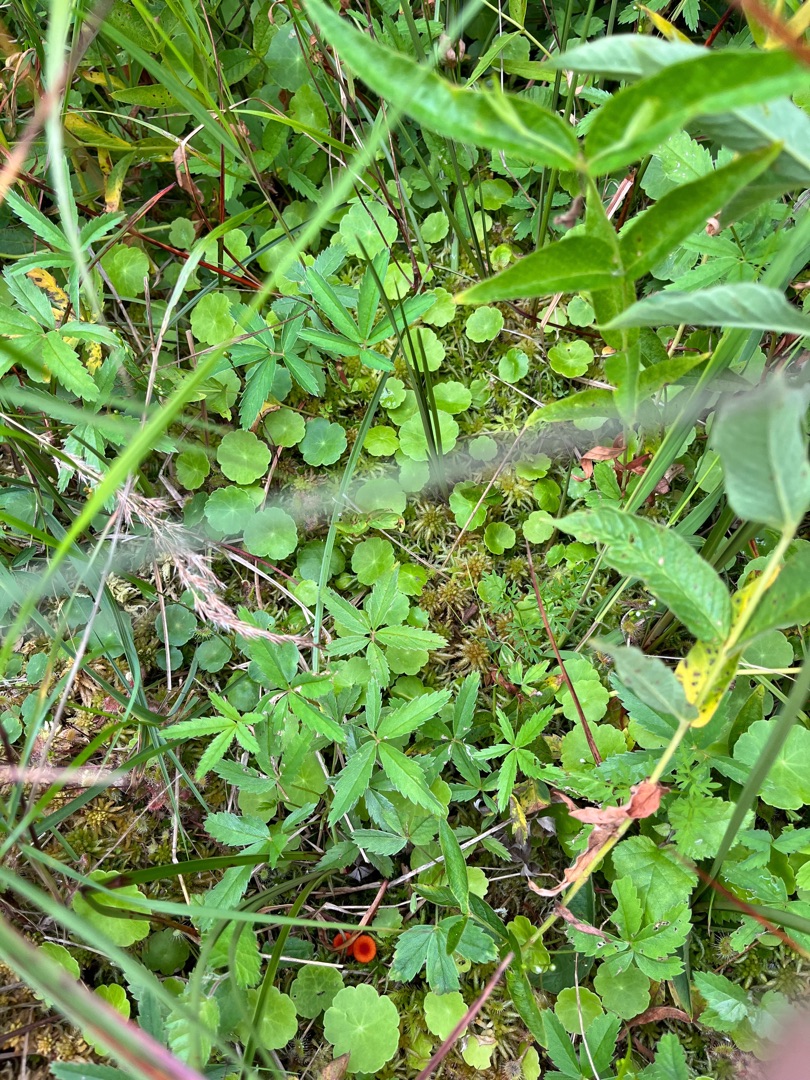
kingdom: Plantae
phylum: Tracheophyta
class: Magnoliopsida
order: Apiales
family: Araliaceae
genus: Hydrocotyle
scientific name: Hydrocotyle vulgaris
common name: Vandnavle
